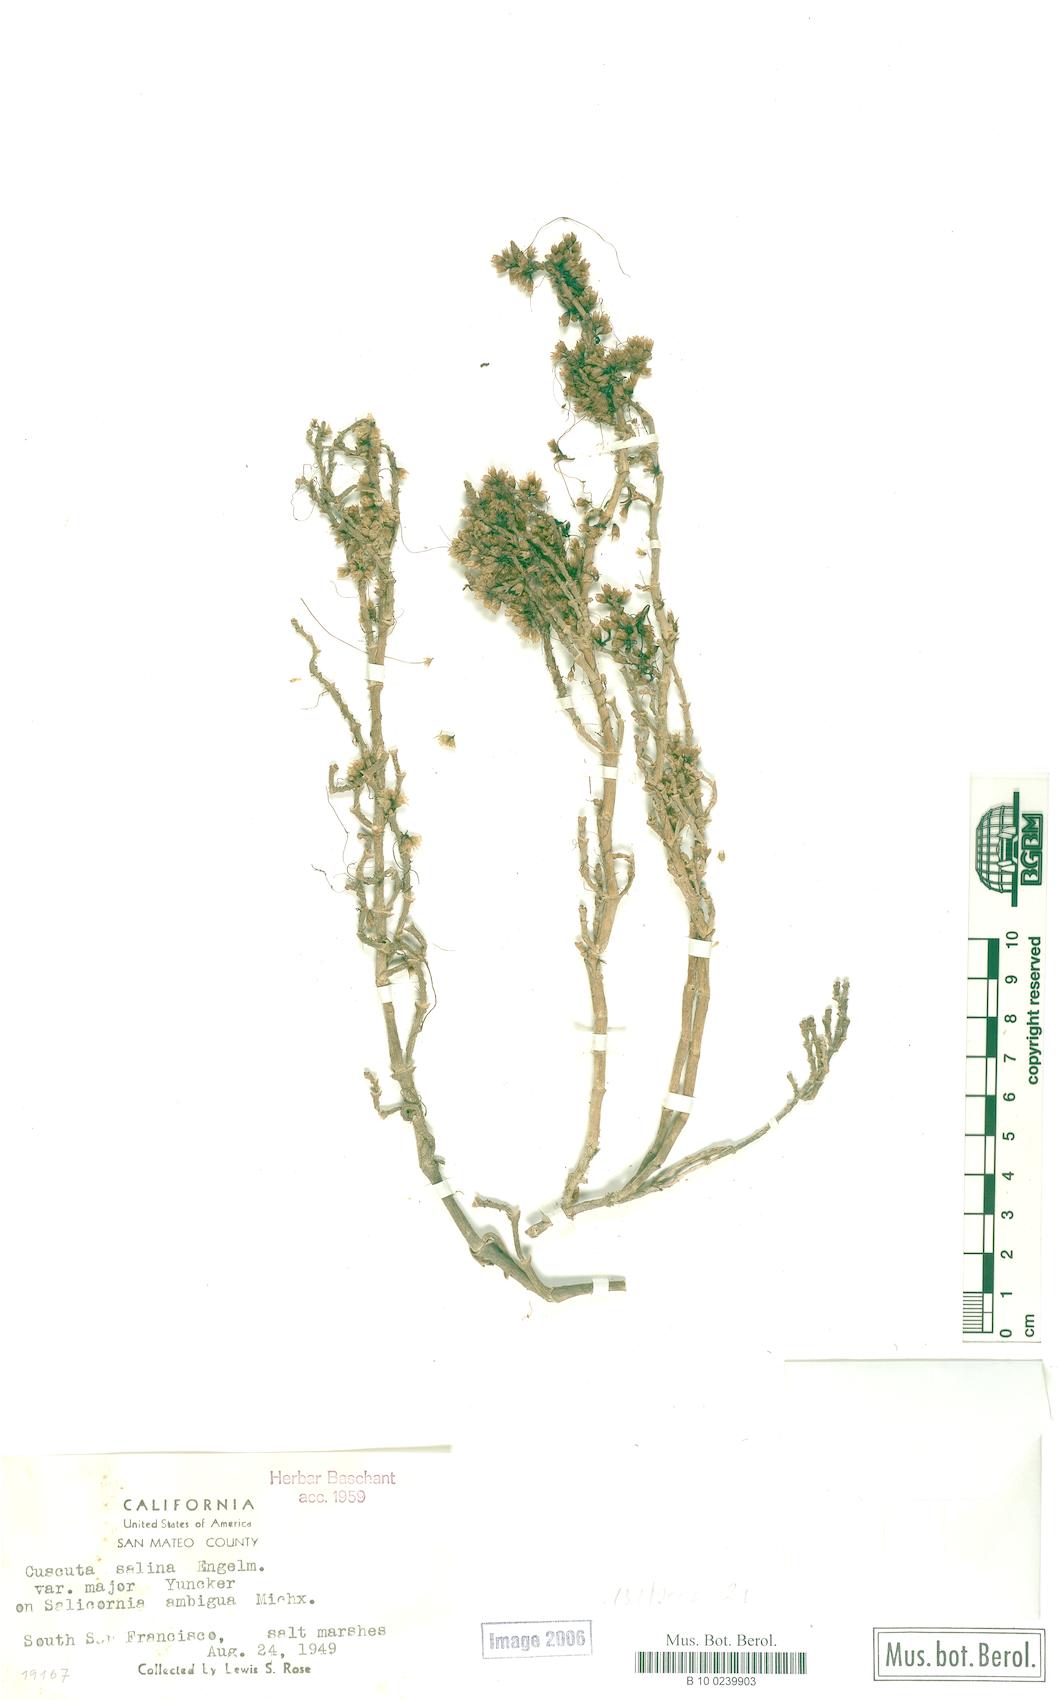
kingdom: Plantae
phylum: Tracheophyta
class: Magnoliopsida
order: Solanales
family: Convolvulaceae
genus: Cuscuta
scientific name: Cuscuta salina
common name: Goldenthread
